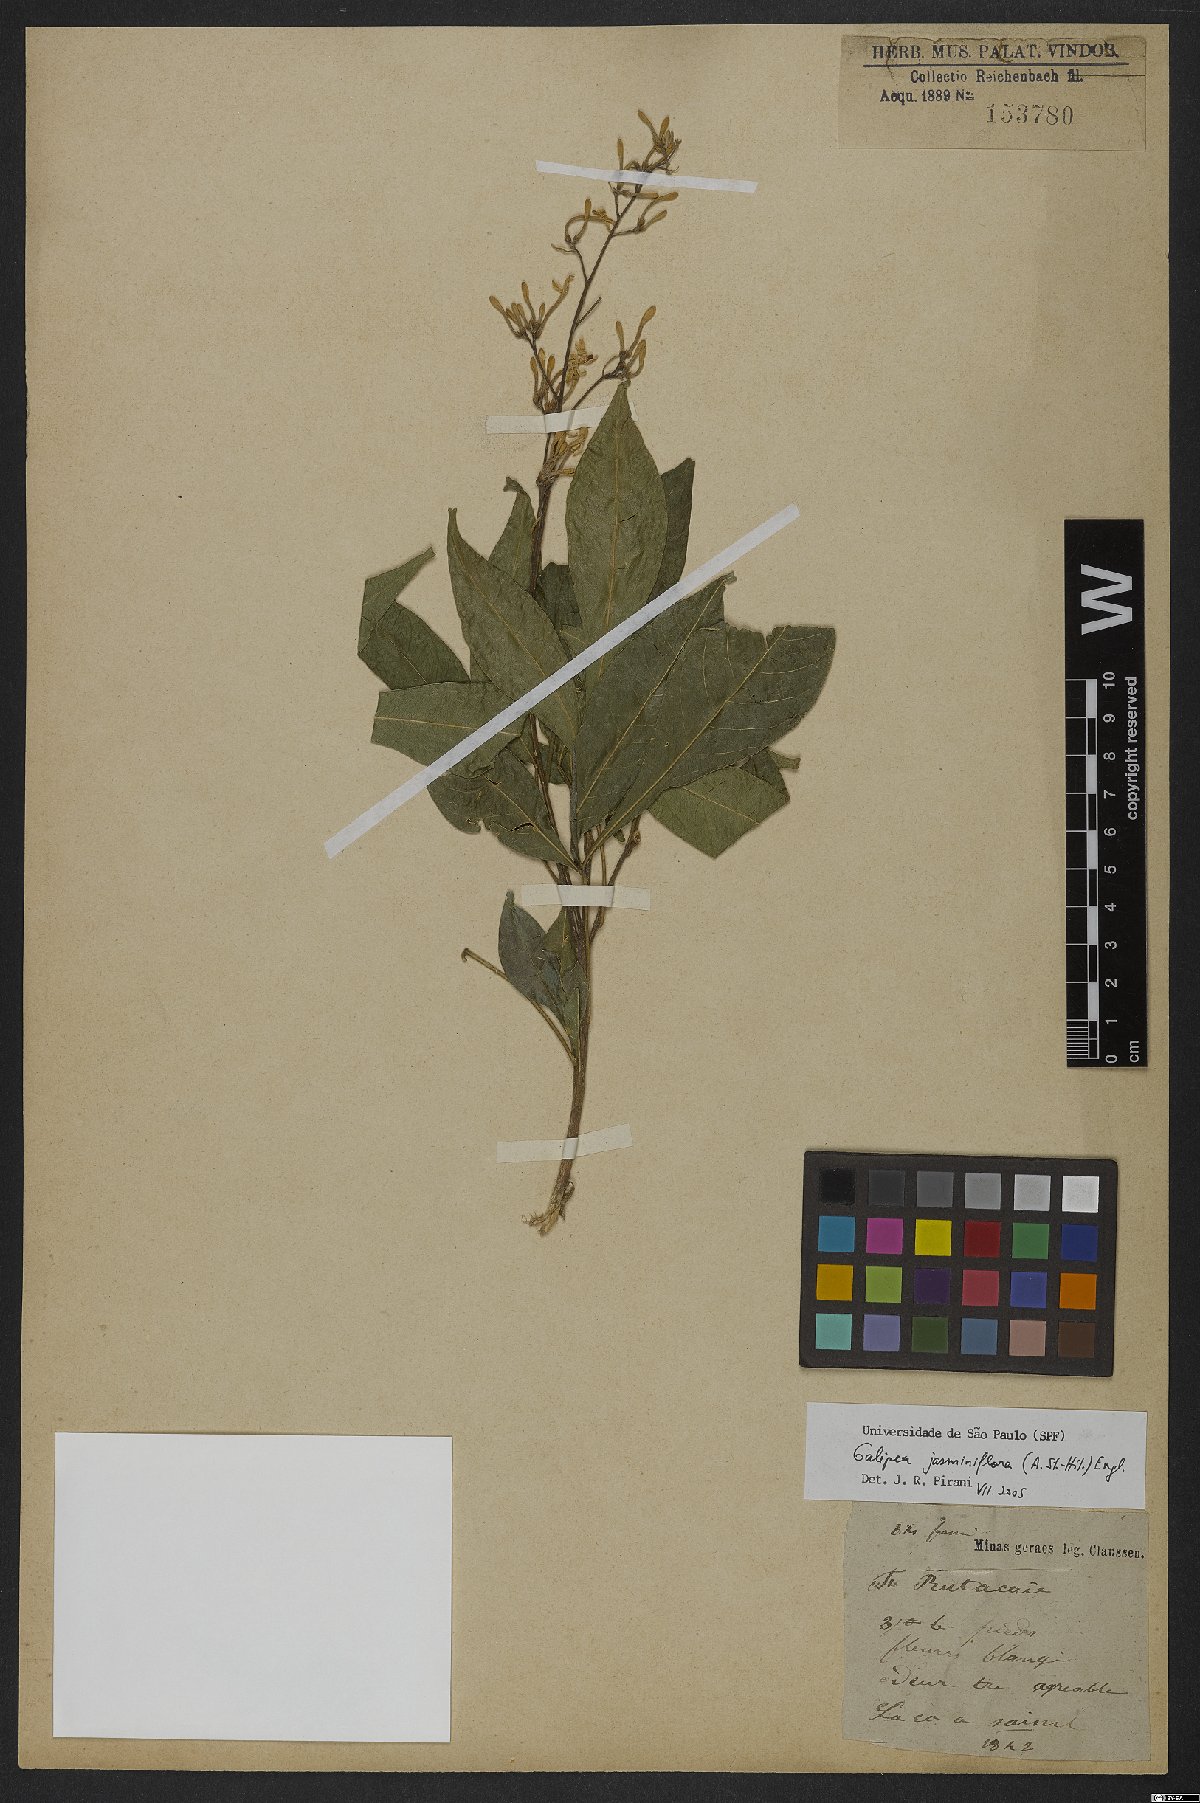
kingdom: Plantae
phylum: Tracheophyta
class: Magnoliopsida
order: Sapindales
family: Rutaceae
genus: Galipea
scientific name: Galipea jasminiflora
